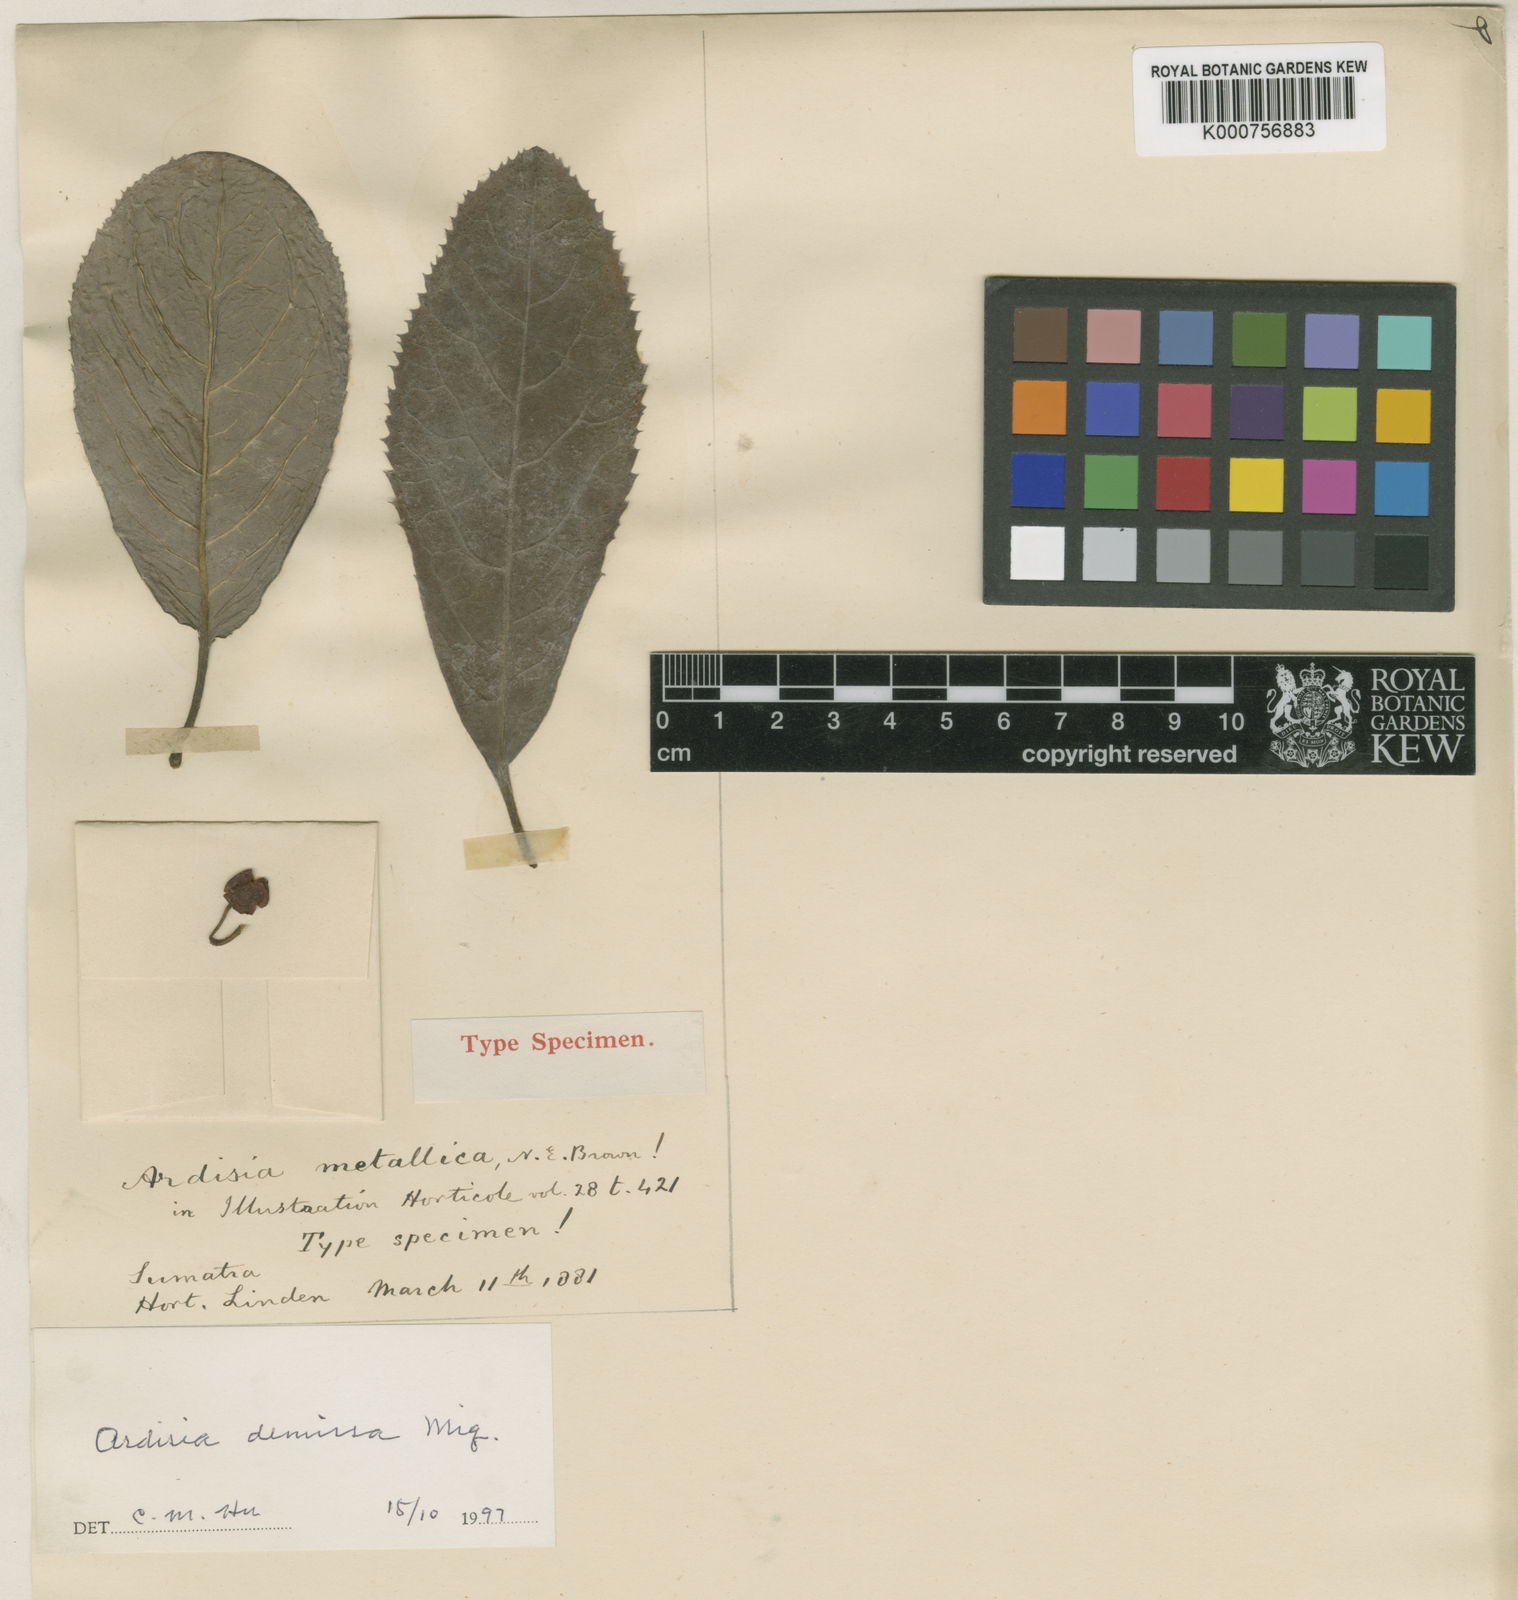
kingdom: Plantae
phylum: Tracheophyta
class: Magnoliopsida
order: Ericales
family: Primulaceae
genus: Ardisia
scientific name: Ardisia demissa
